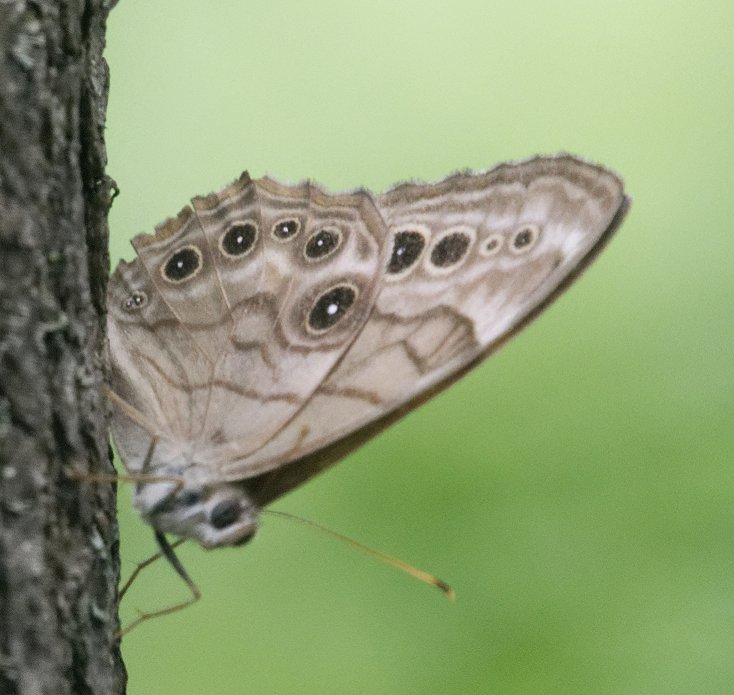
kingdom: Animalia
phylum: Arthropoda
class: Insecta
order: Lepidoptera
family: Nymphalidae
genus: Lethe
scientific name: Lethe anthedon
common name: Northern Pearly-Eye
